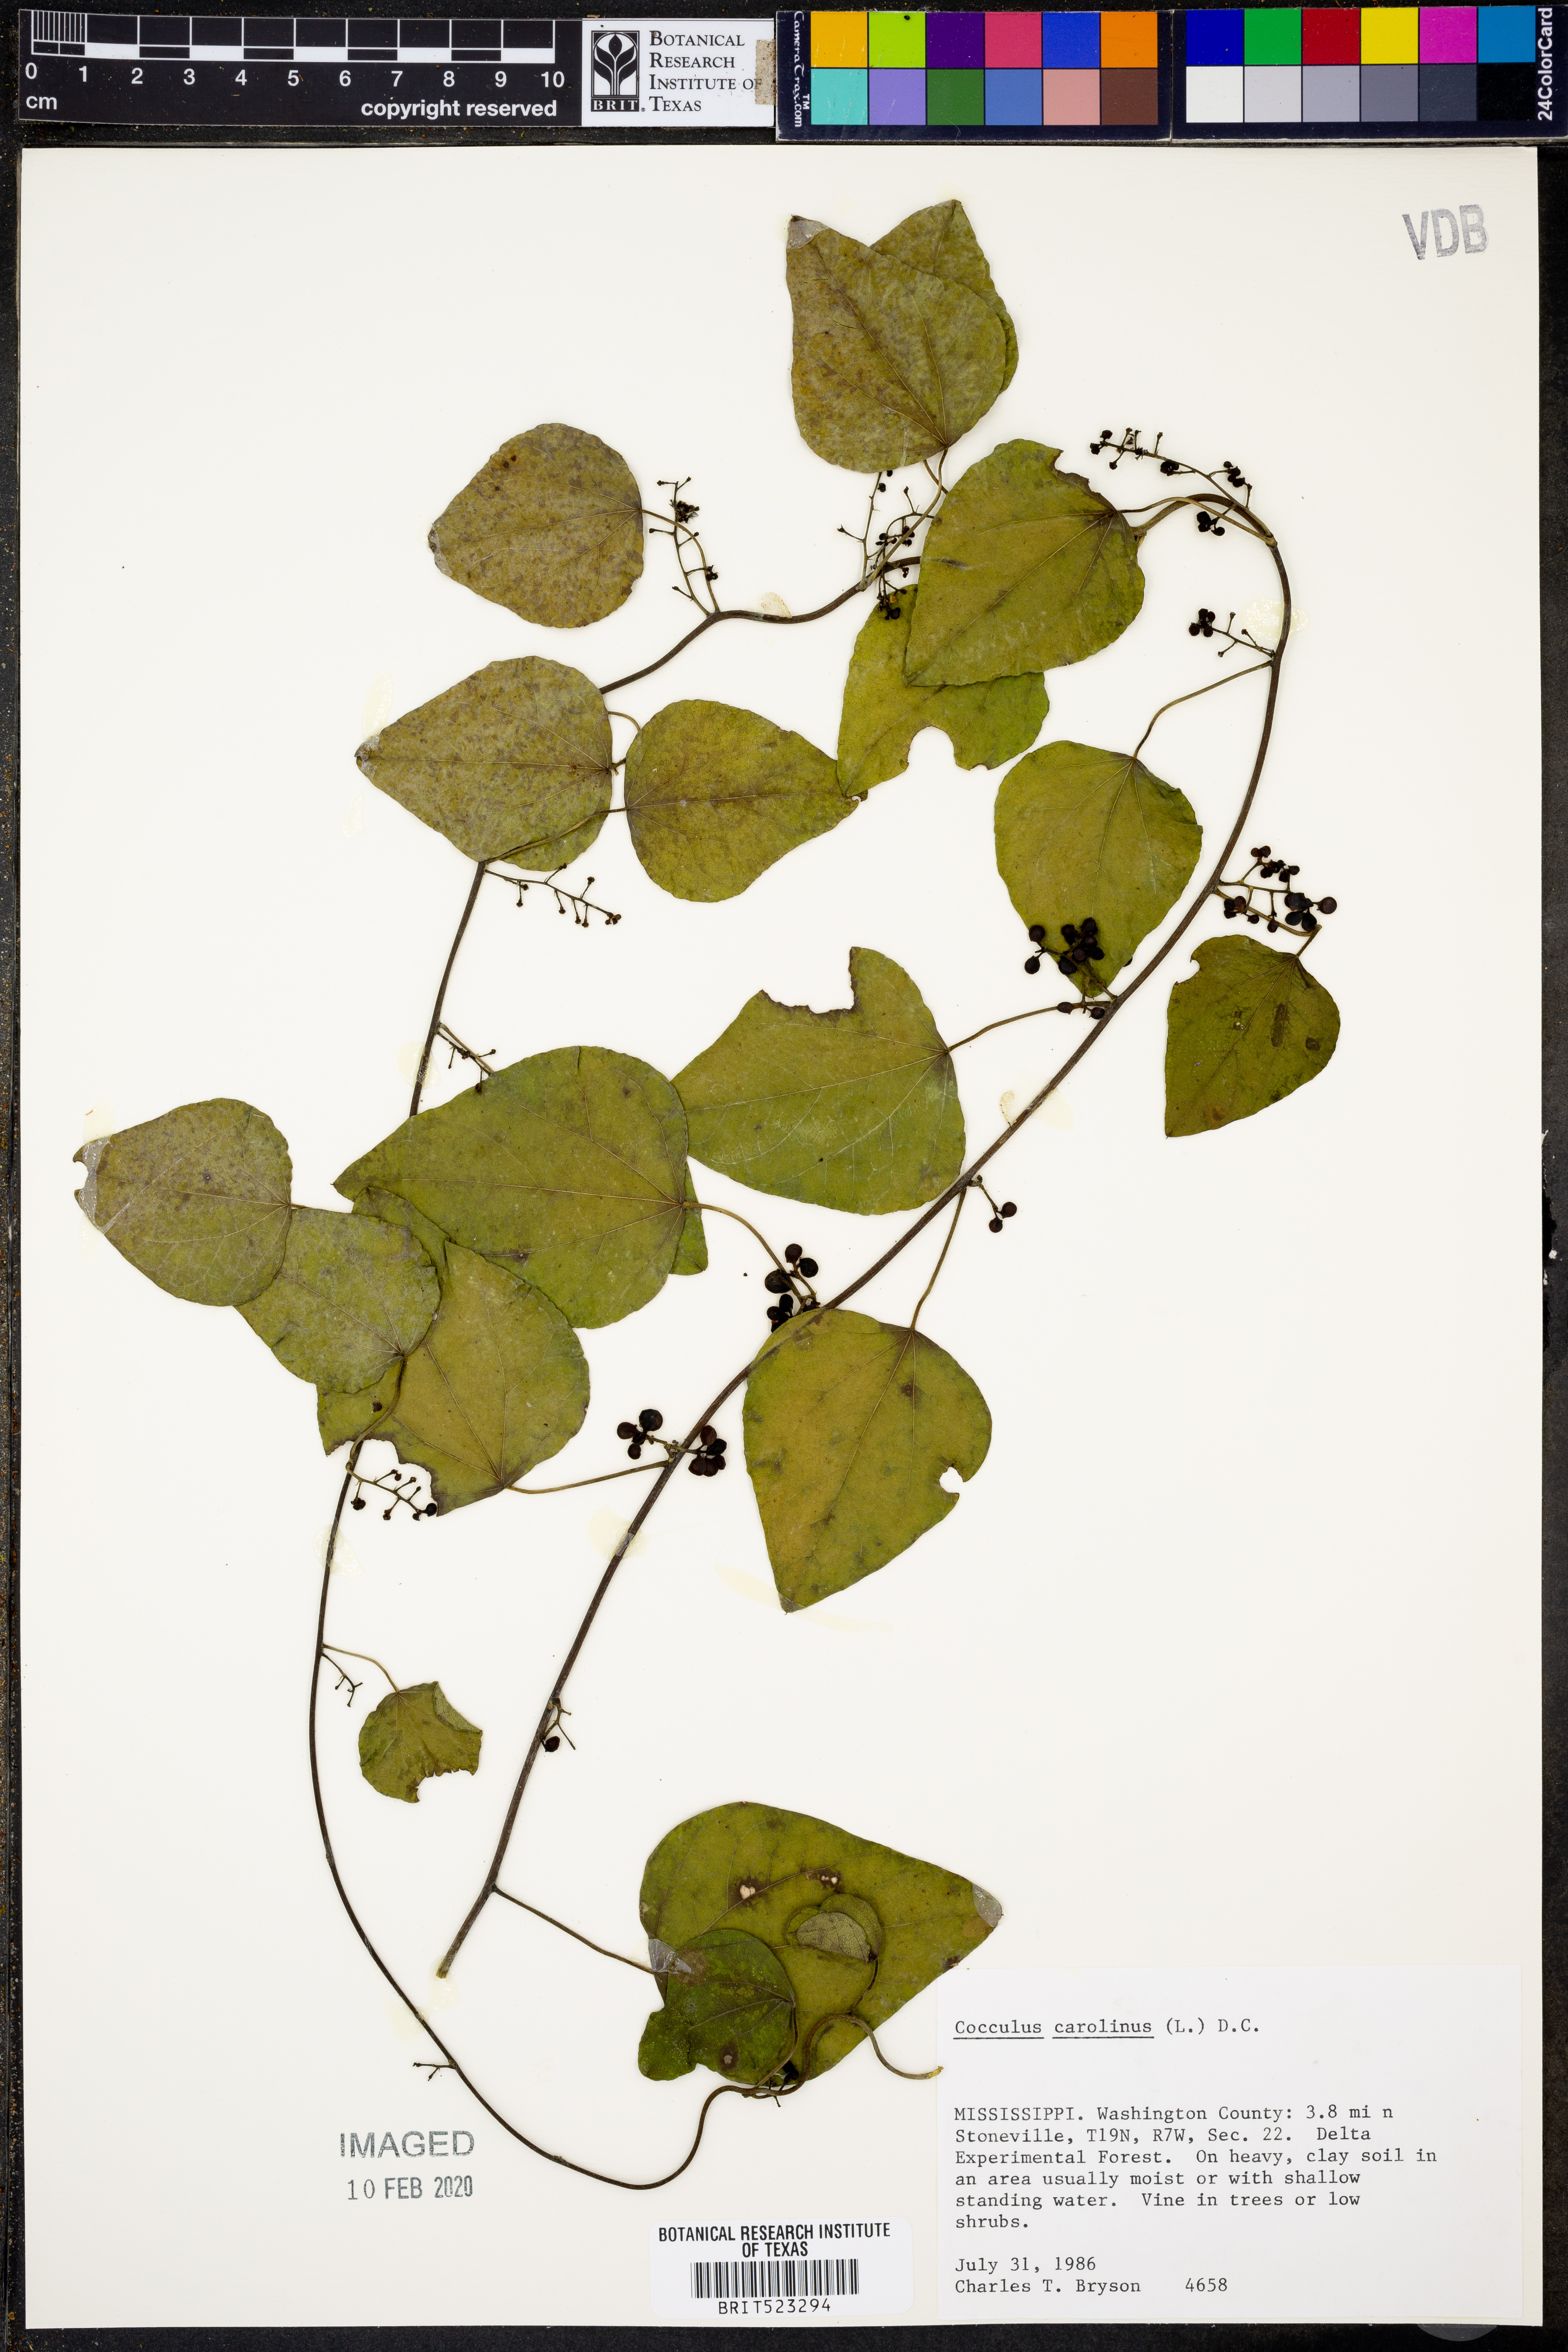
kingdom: Plantae
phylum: Tracheophyta
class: Magnoliopsida
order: Ranunculales
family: Menispermaceae
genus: Cocculus
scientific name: Cocculus carolinus
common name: Carolina moonseed
